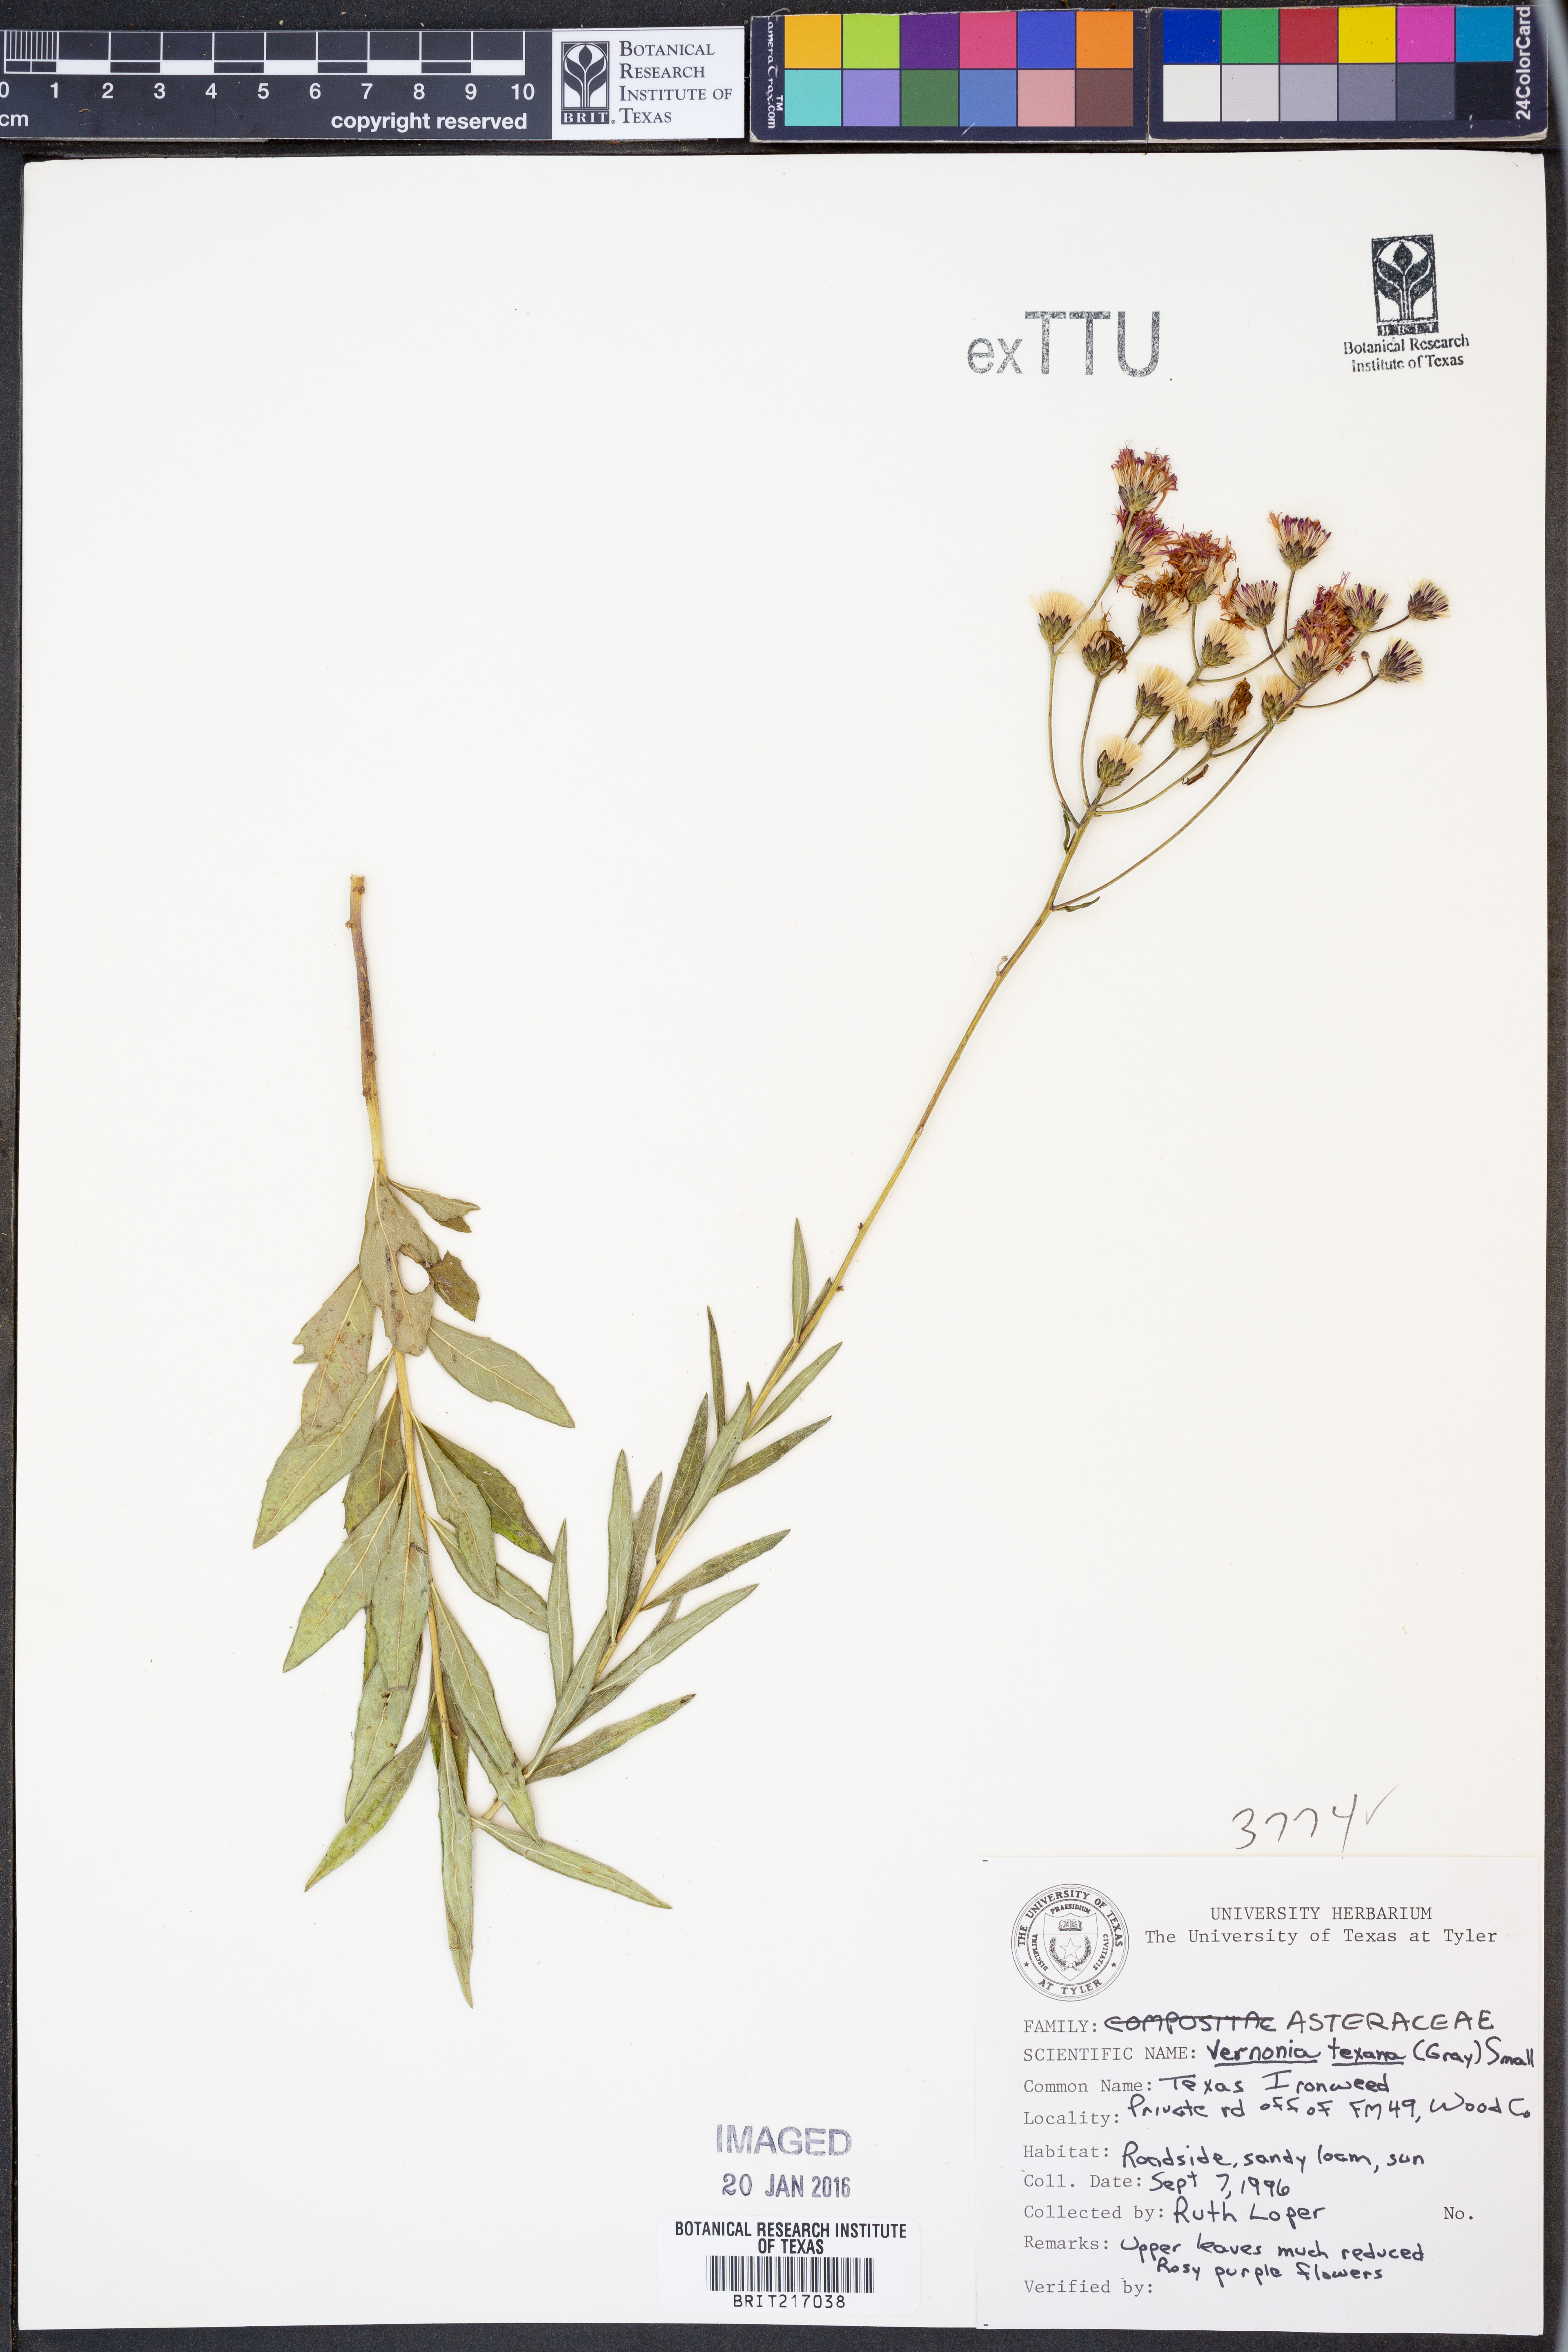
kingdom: Plantae
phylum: Tracheophyta
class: Magnoliopsida
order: Asterales
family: Asteraceae
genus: Vernonia
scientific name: Vernonia texana
